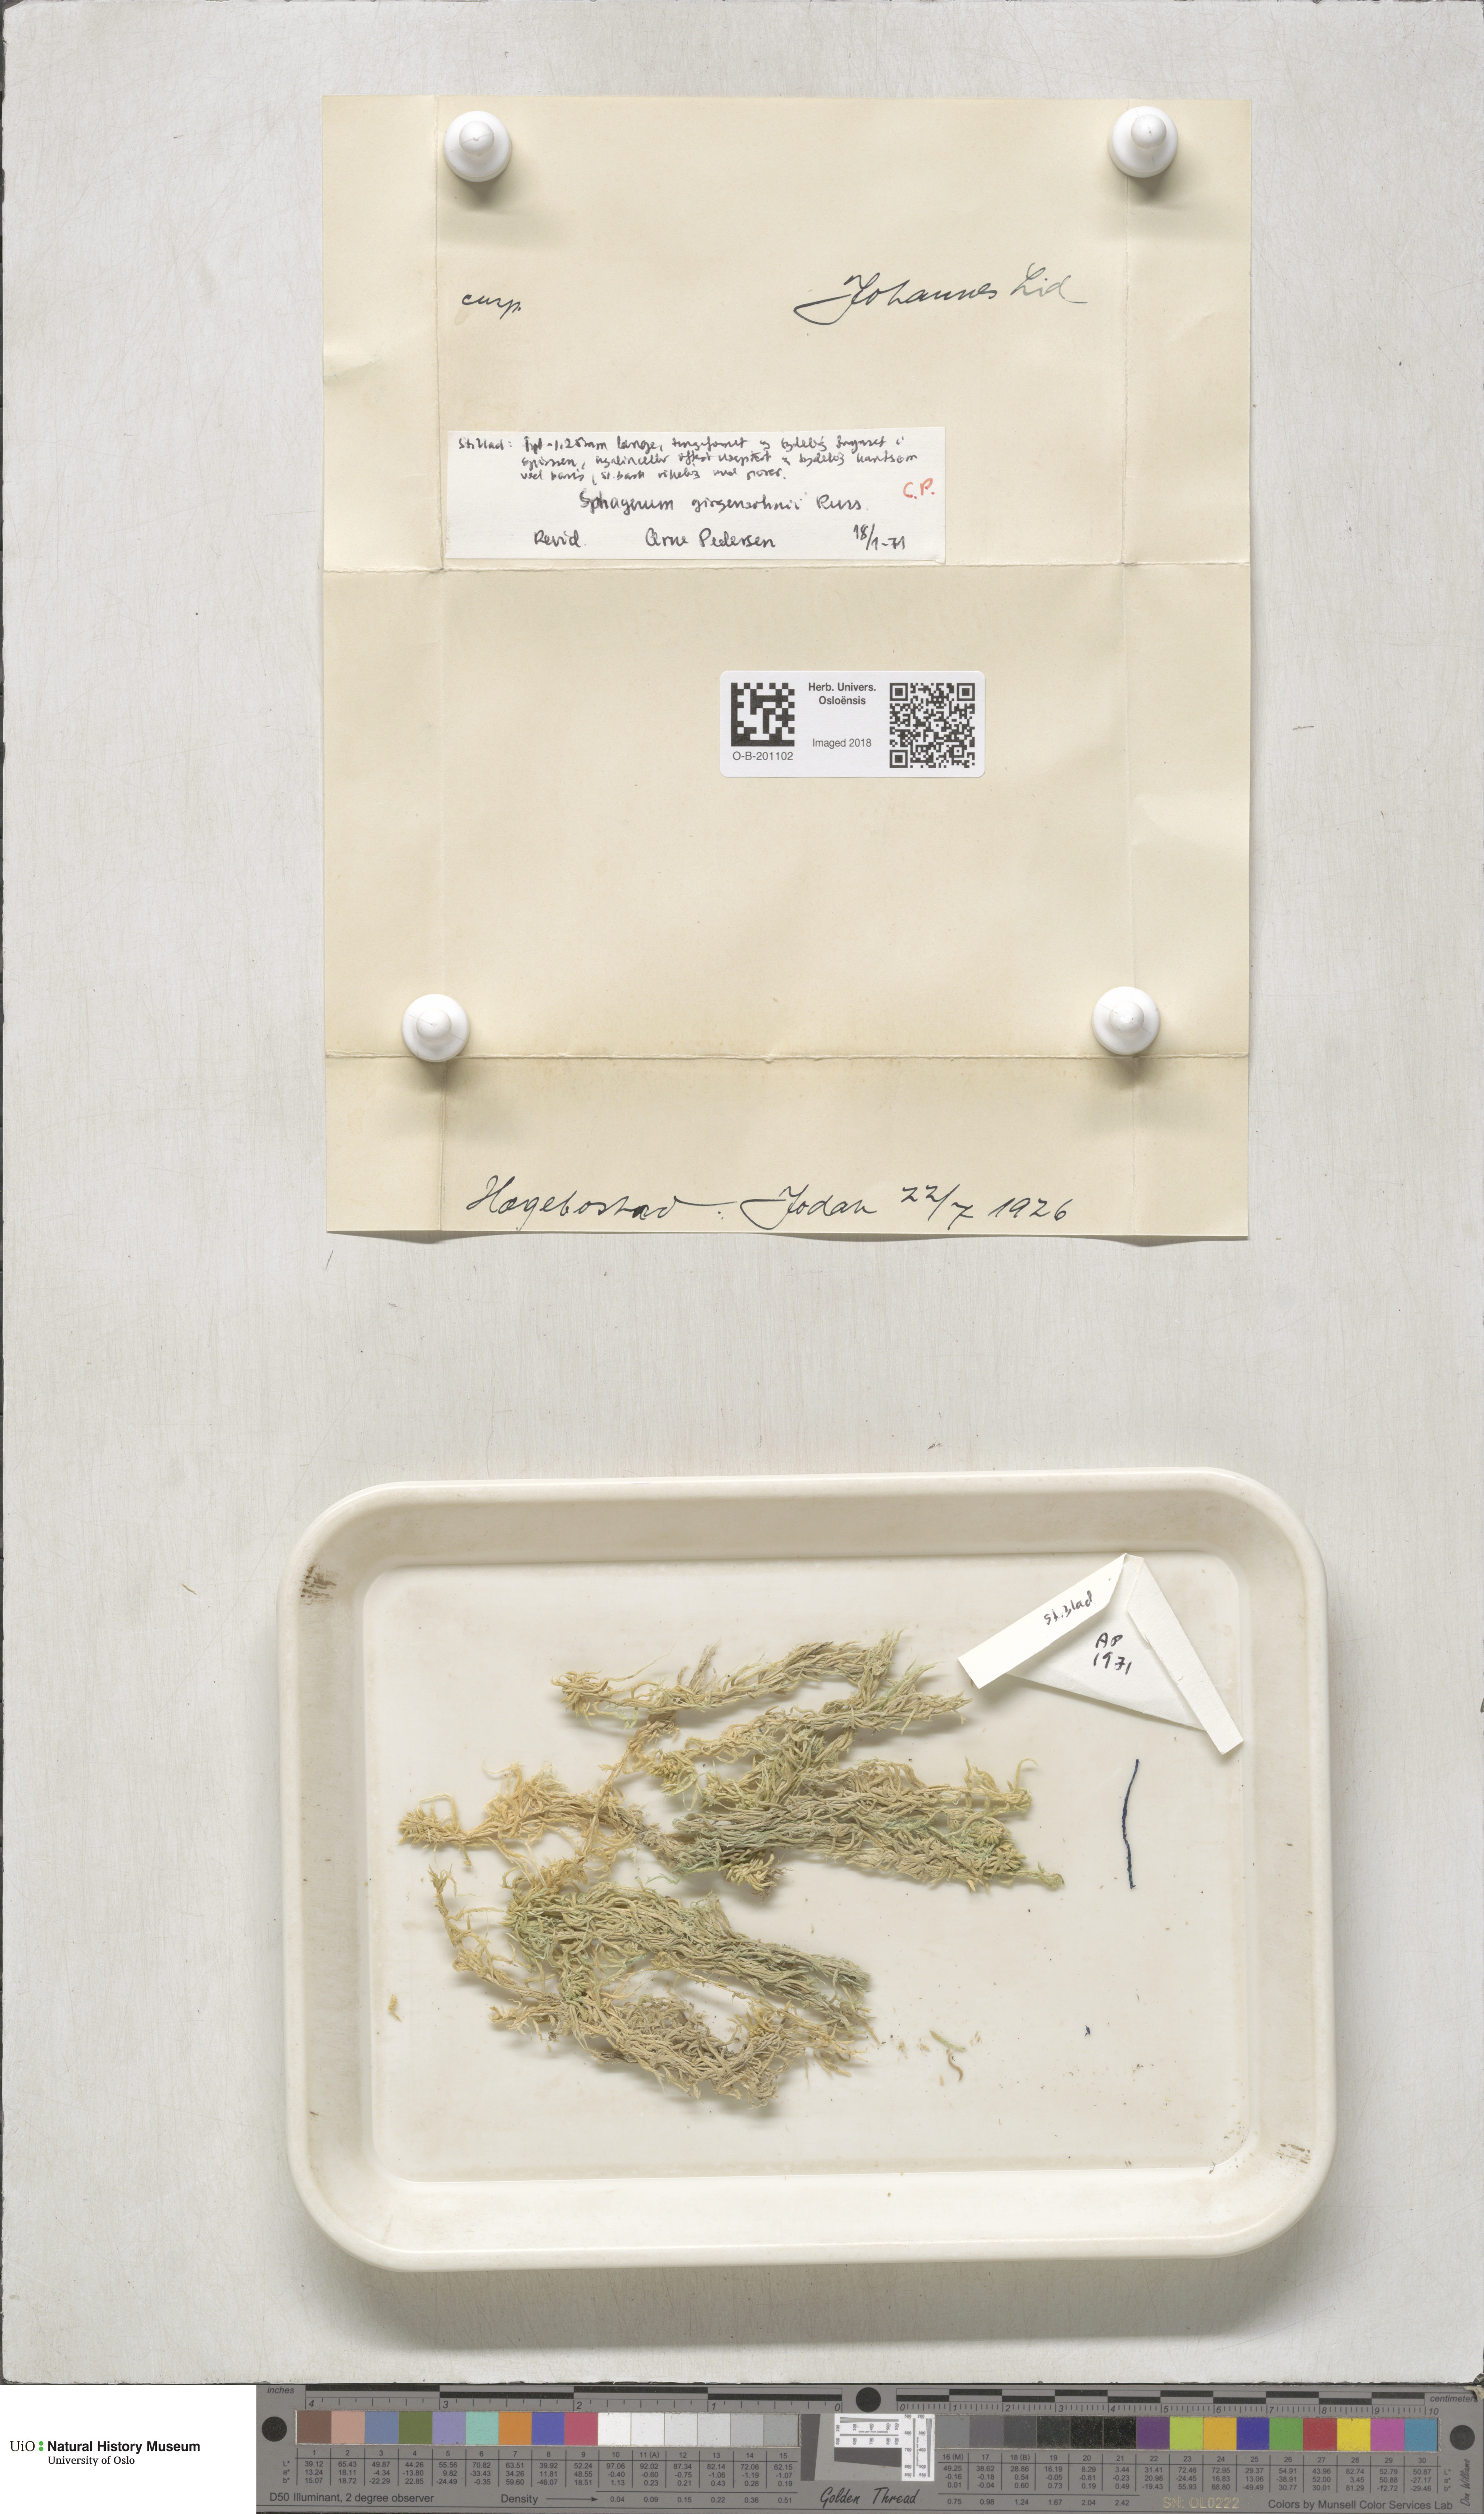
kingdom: Plantae
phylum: Bryophyta
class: Sphagnopsida
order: Sphagnales
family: Sphagnaceae
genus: Sphagnum
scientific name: Sphagnum girgensohnii
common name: Girgensohn's peat moss
